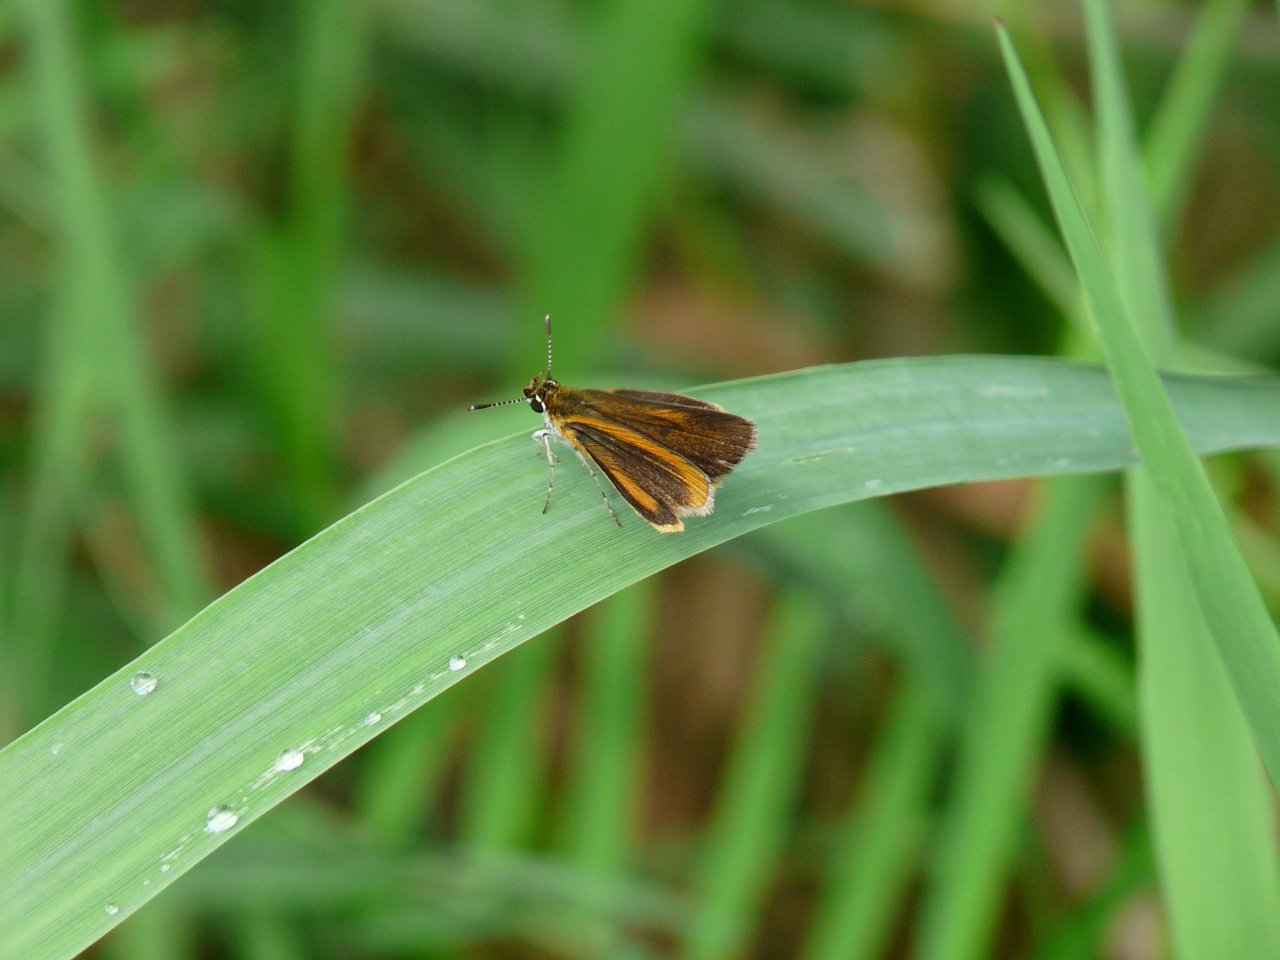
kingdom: Animalia
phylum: Arthropoda
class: Insecta
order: Lepidoptera
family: Hesperiidae
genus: Ancyloxypha
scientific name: Ancyloxypha numitor
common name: Least Skipper
